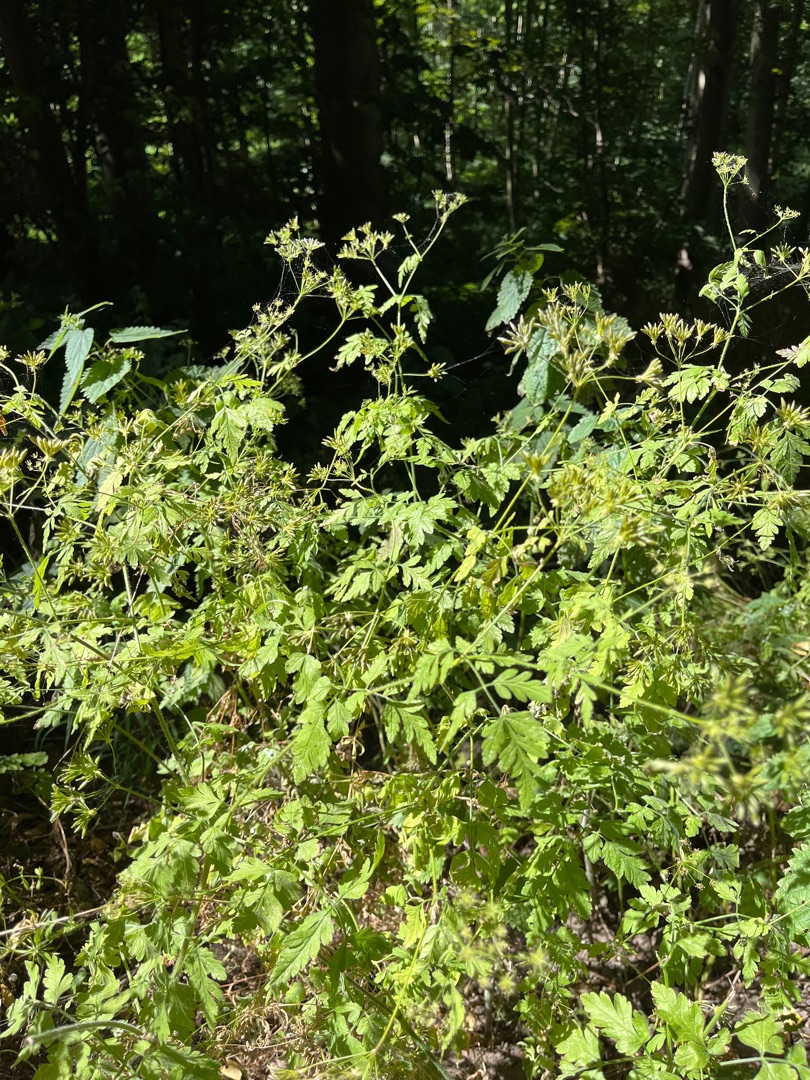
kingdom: Plantae
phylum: Tracheophyta
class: Magnoliopsida
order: Apiales
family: Apiaceae
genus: Chaerophyllum
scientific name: Chaerophyllum temulum
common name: Almindelig hulsvøb
